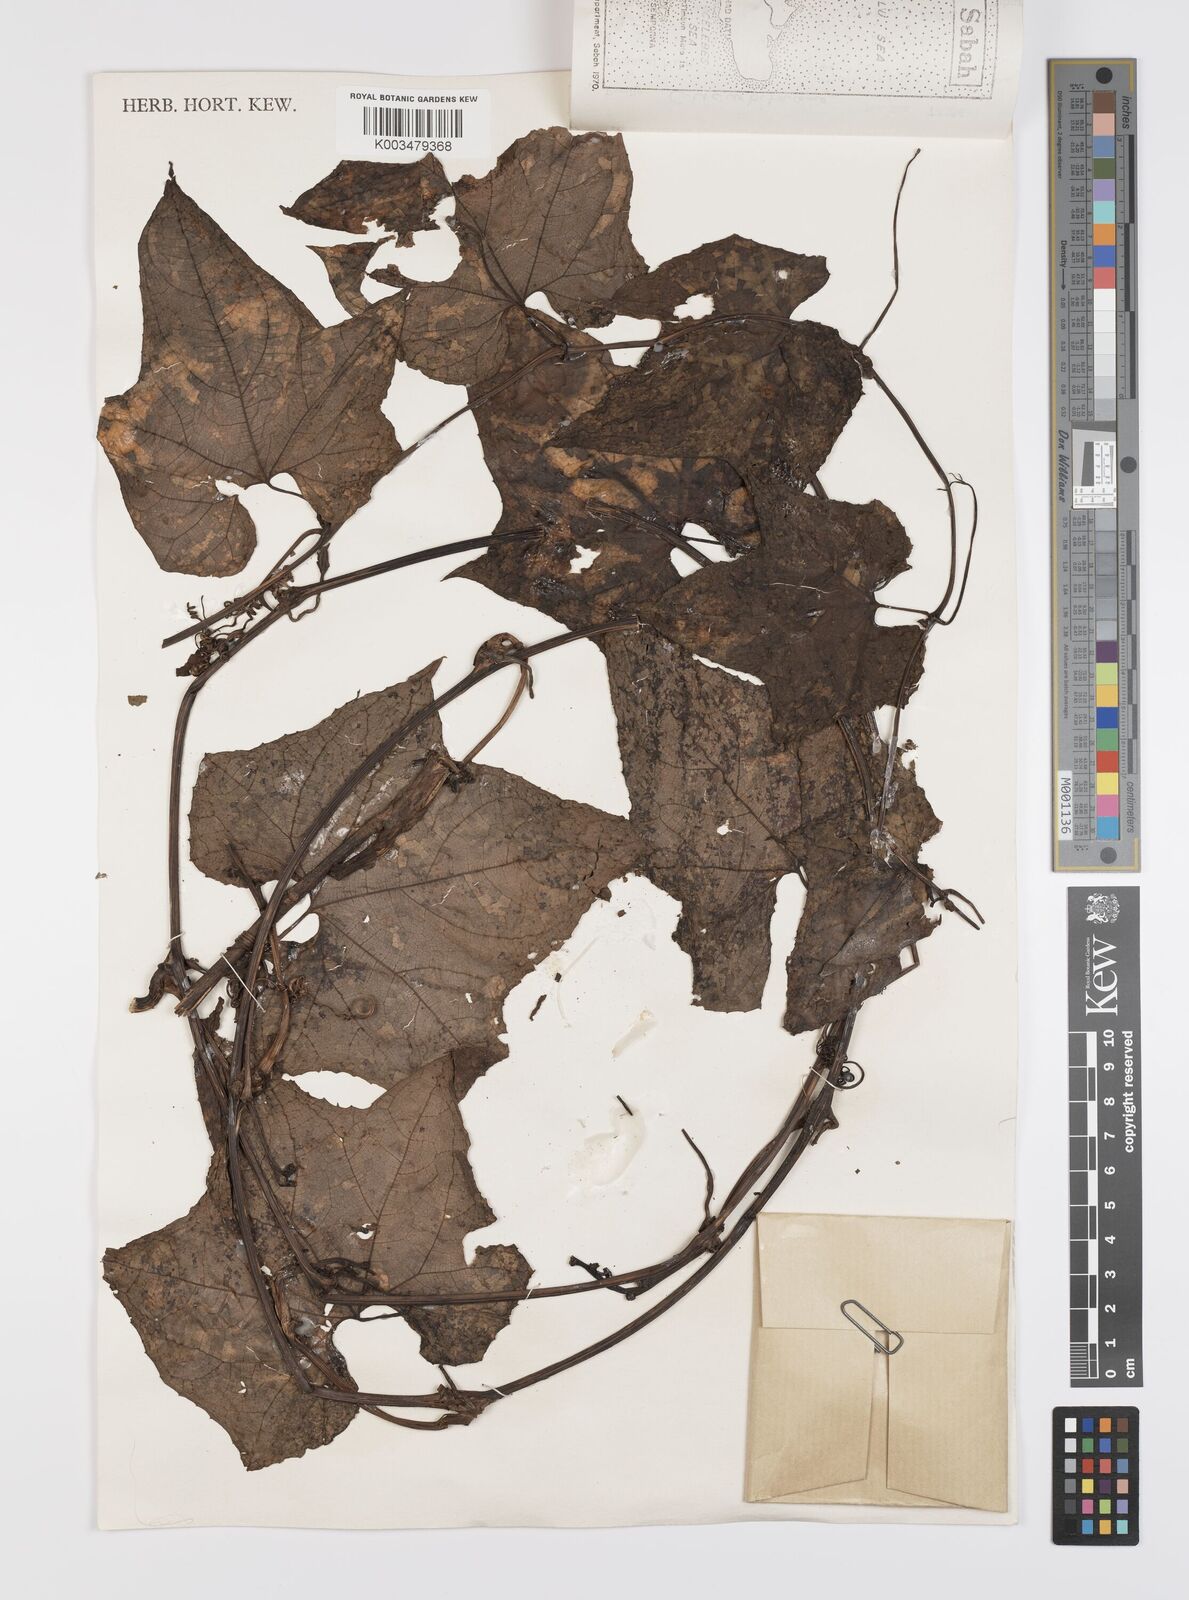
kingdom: Plantae
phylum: Tracheophyta
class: Magnoliopsida
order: Cucurbitales
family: Cucurbitaceae
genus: Trichosanthes
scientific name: Trichosanthes tricuspidata
